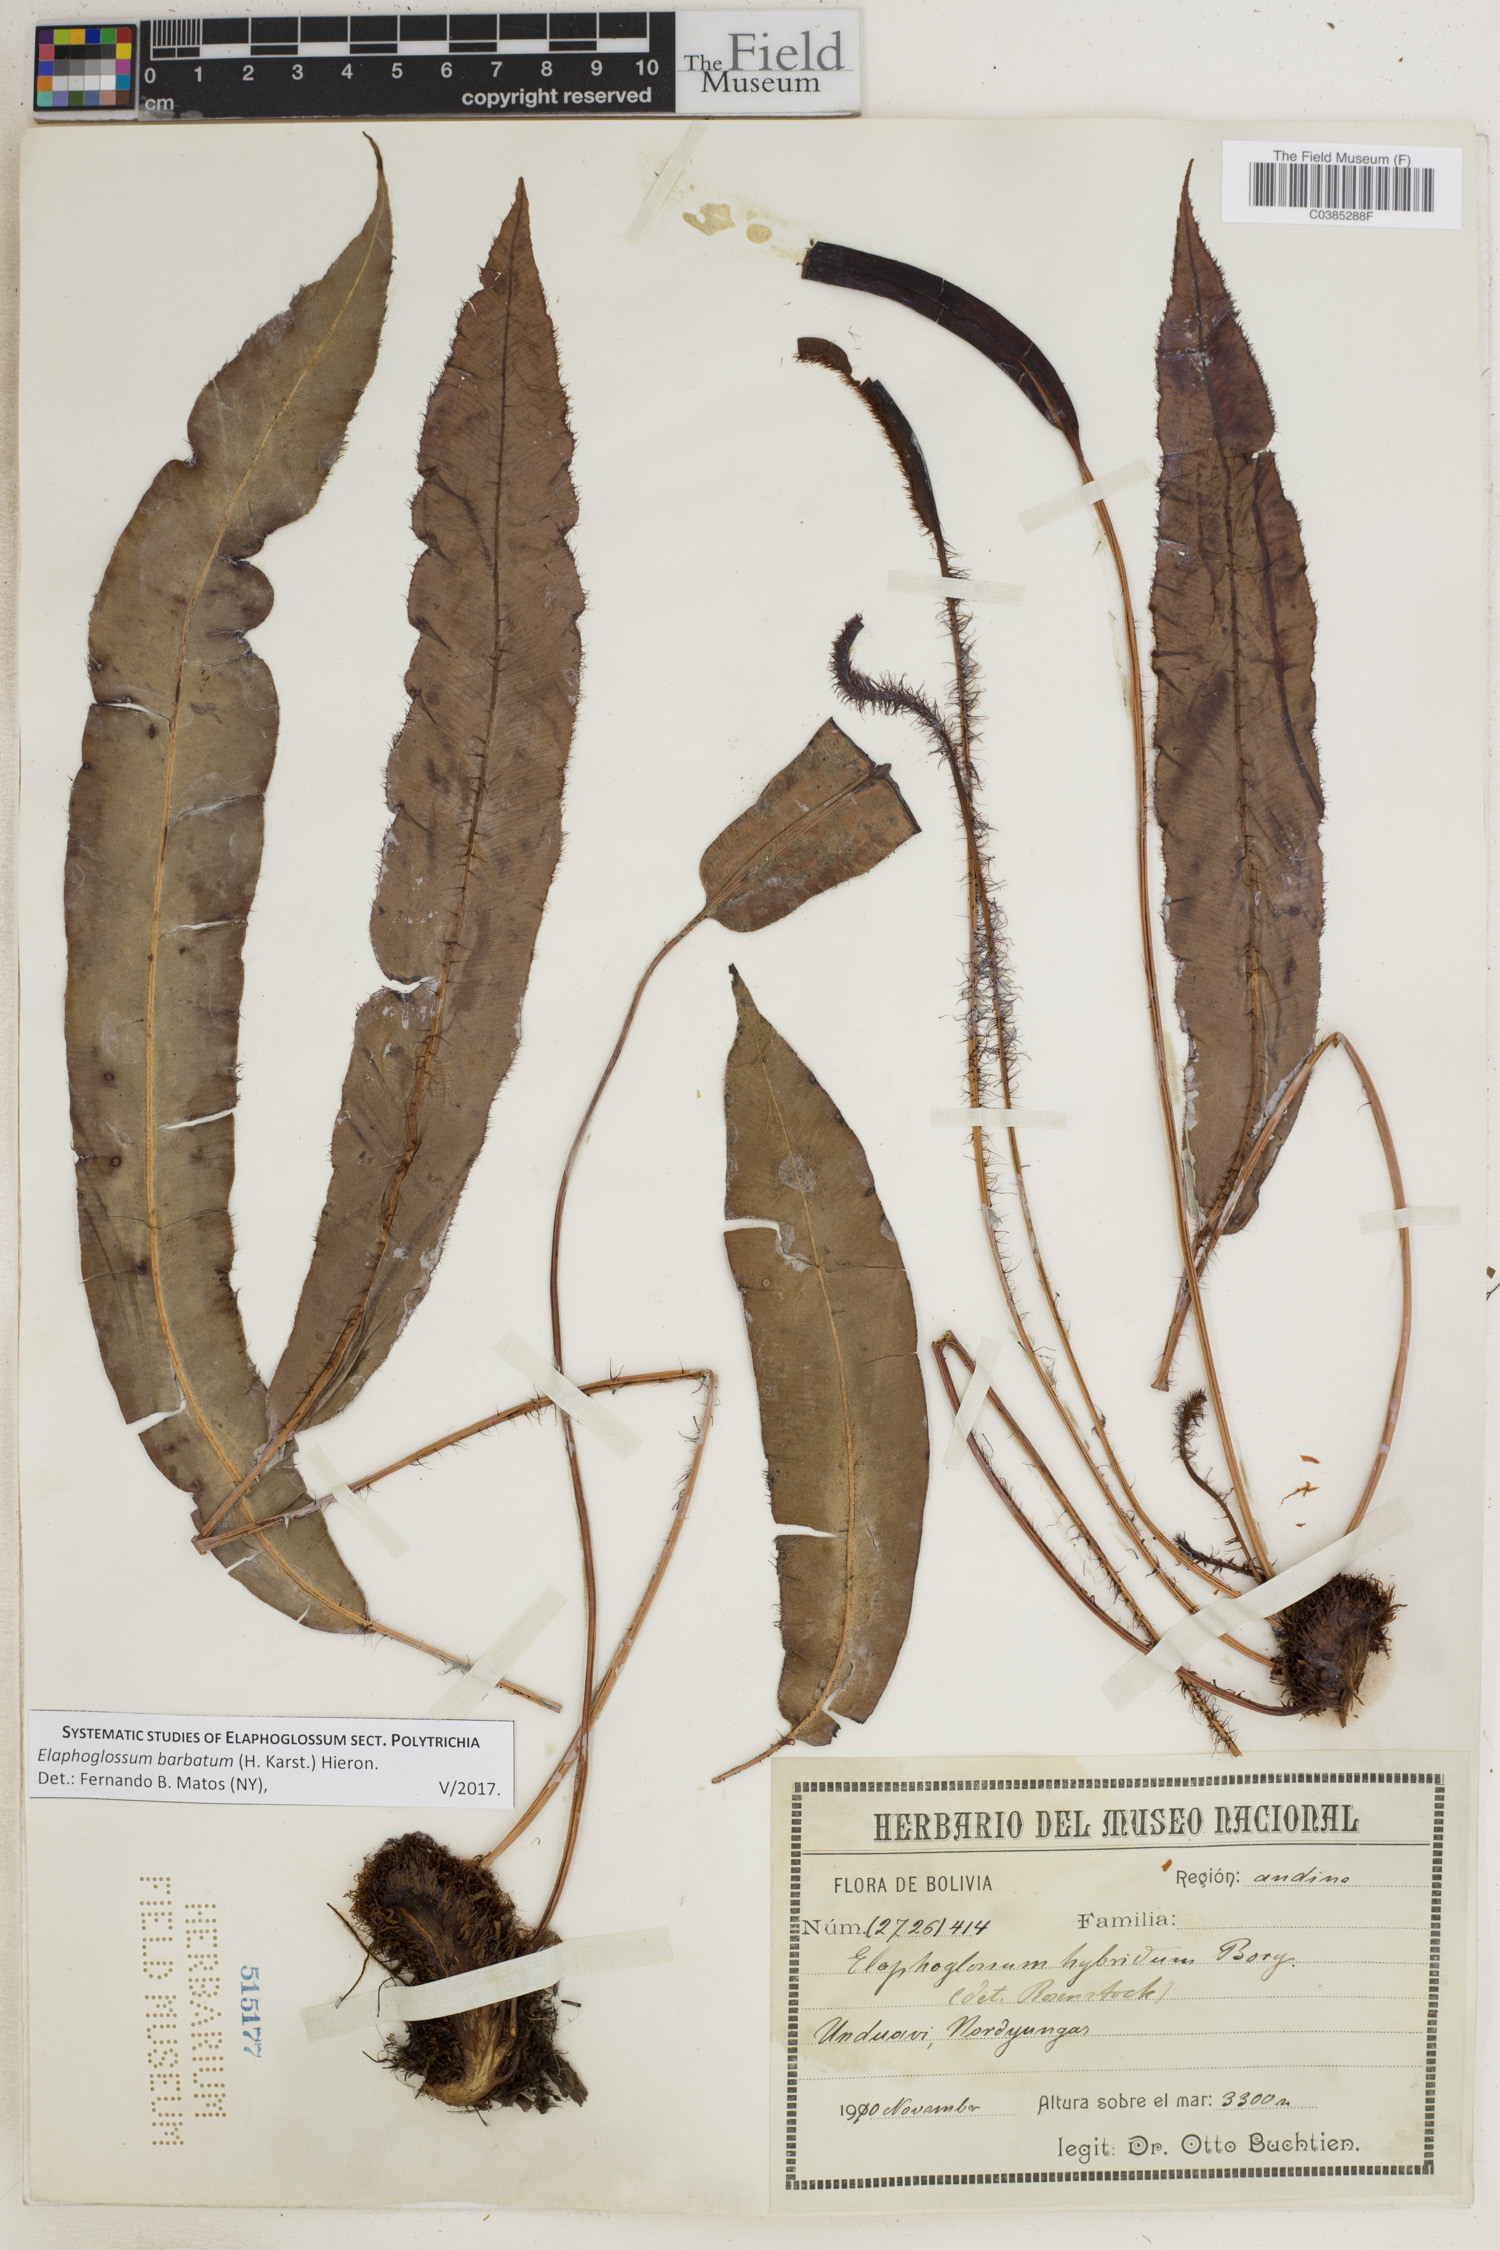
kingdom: Plantae
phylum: Tracheophyta
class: Polypodiopsida
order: Polypodiales
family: Dryopteridaceae
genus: Elaphoglossum
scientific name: Elaphoglossum barbatum
